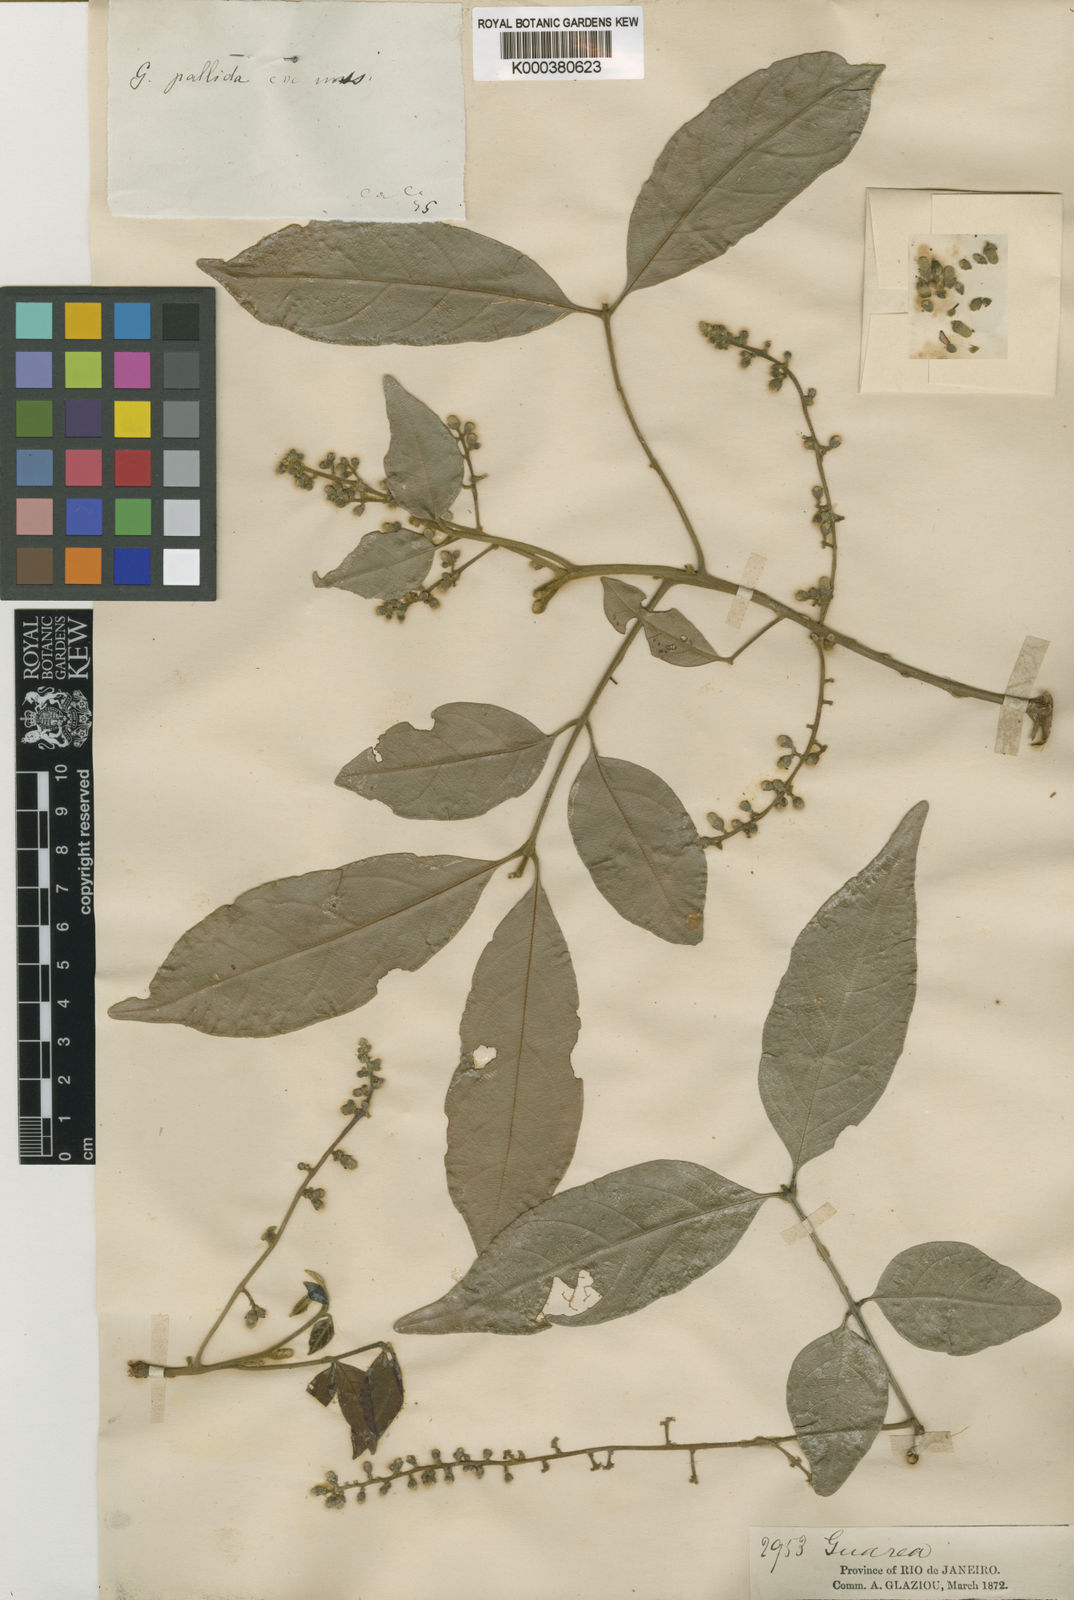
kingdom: Plantae
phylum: Tracheophyta
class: Magnoliopsida
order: Sapindales
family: Meliaceae
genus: Guarea
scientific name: Guarea macrophylla
